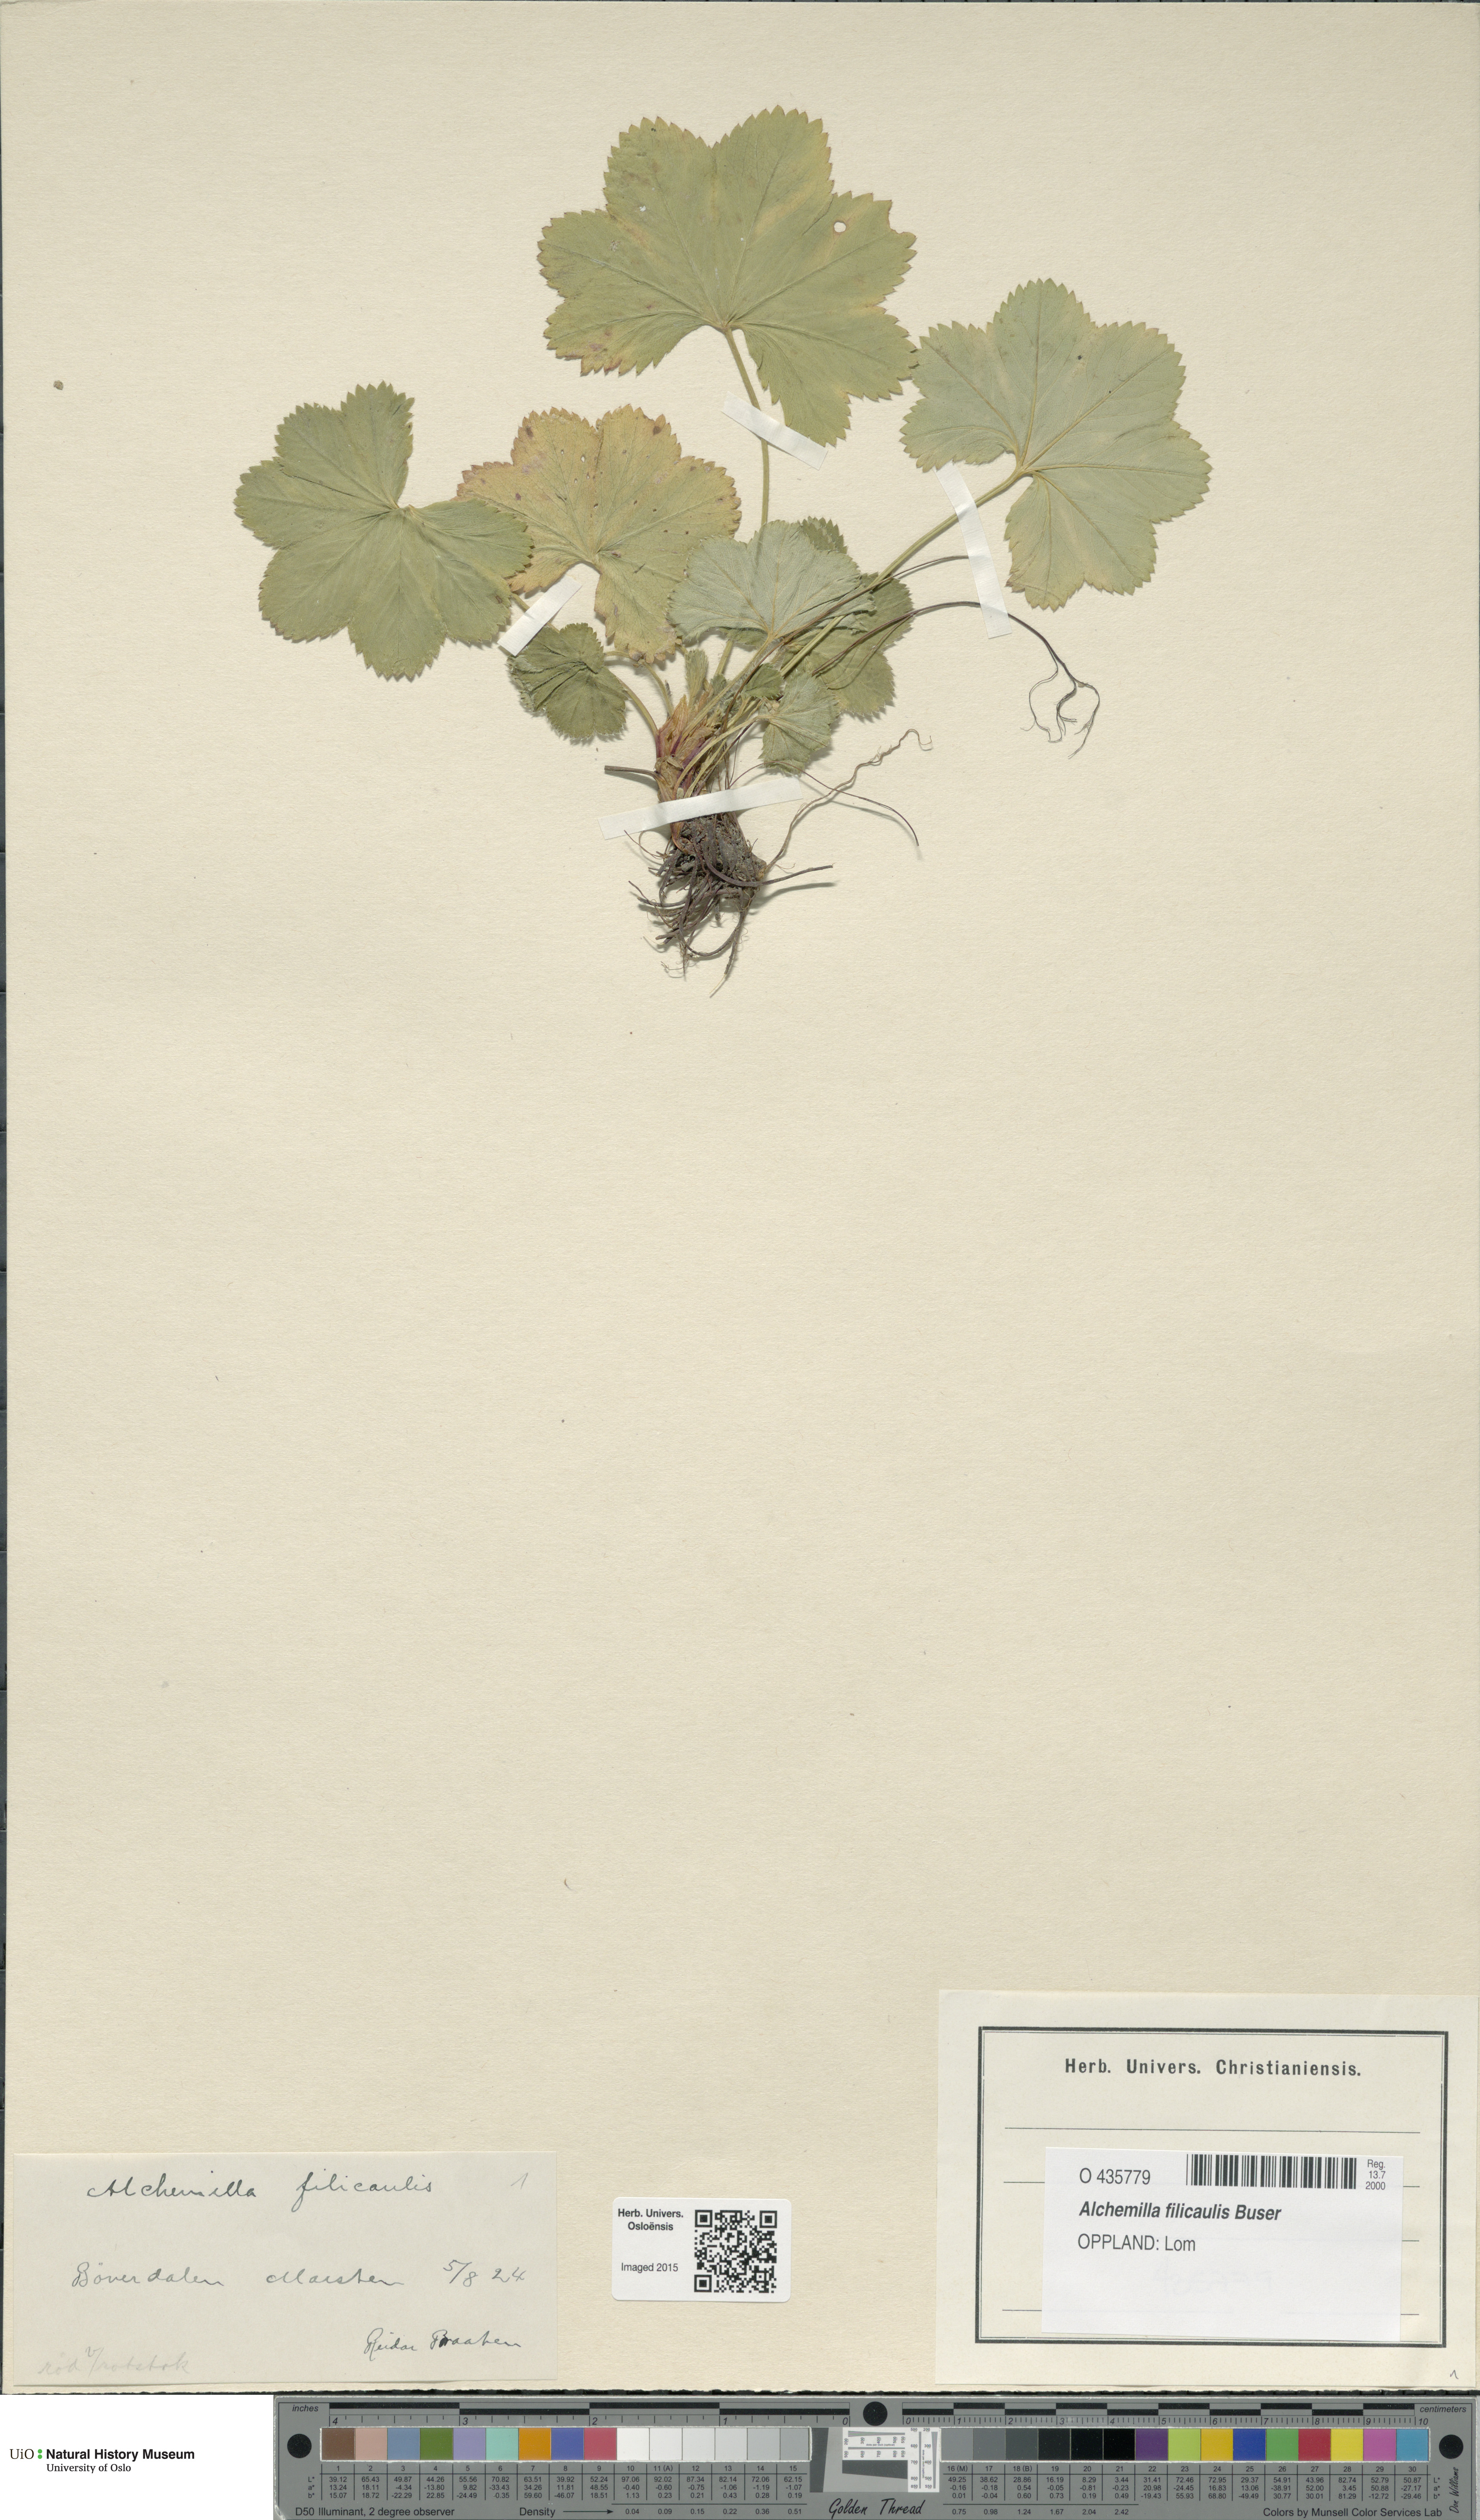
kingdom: Plantae
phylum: Tracheophyta
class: Magnoliopsida
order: Rosales
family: Rosaceae
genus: Alchemilla
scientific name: Alchemilla filicaulis
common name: Hairy lady's-mantle
